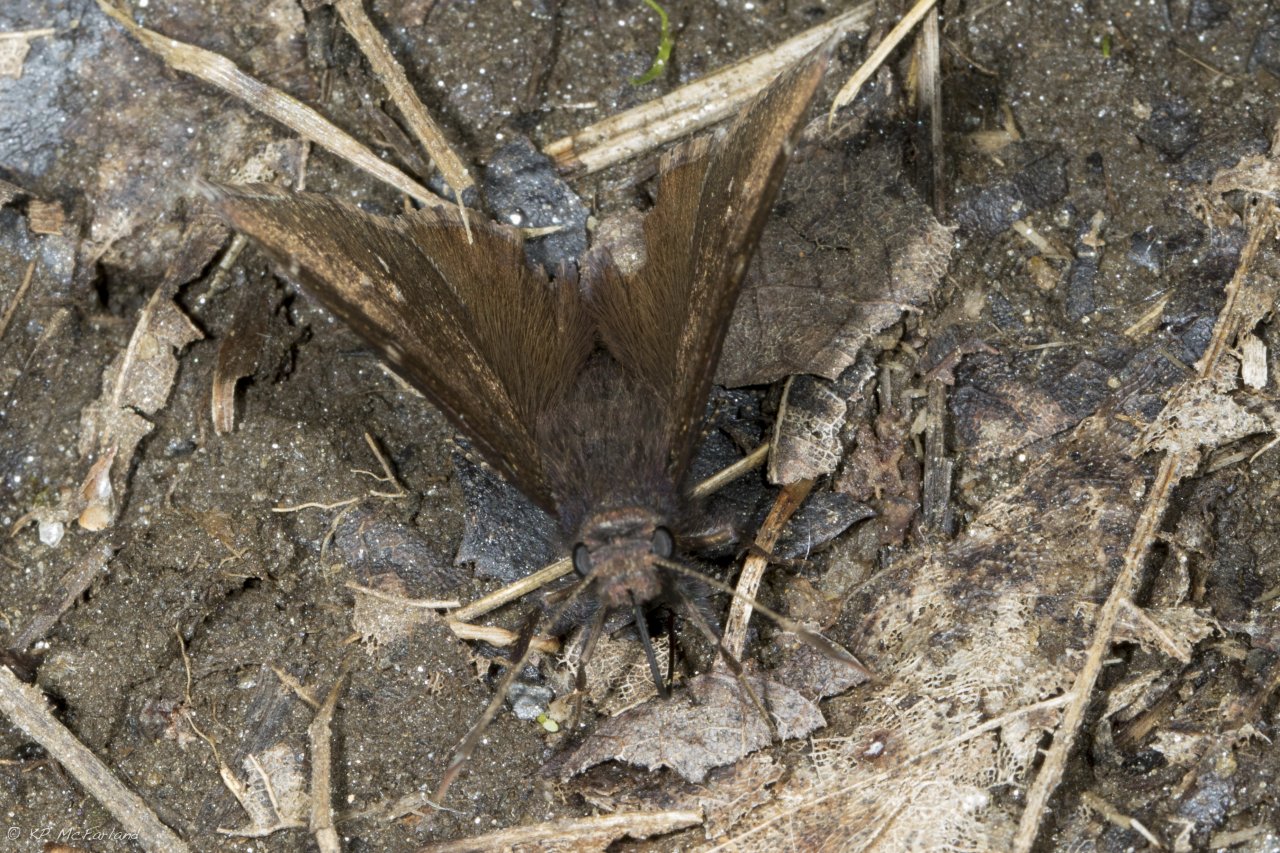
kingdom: Animalia
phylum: Arthropoda
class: Insecta
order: Lepidoptera
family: Hesperiidae
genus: Autochton
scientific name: Autochton
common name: Northern Cloudywing
